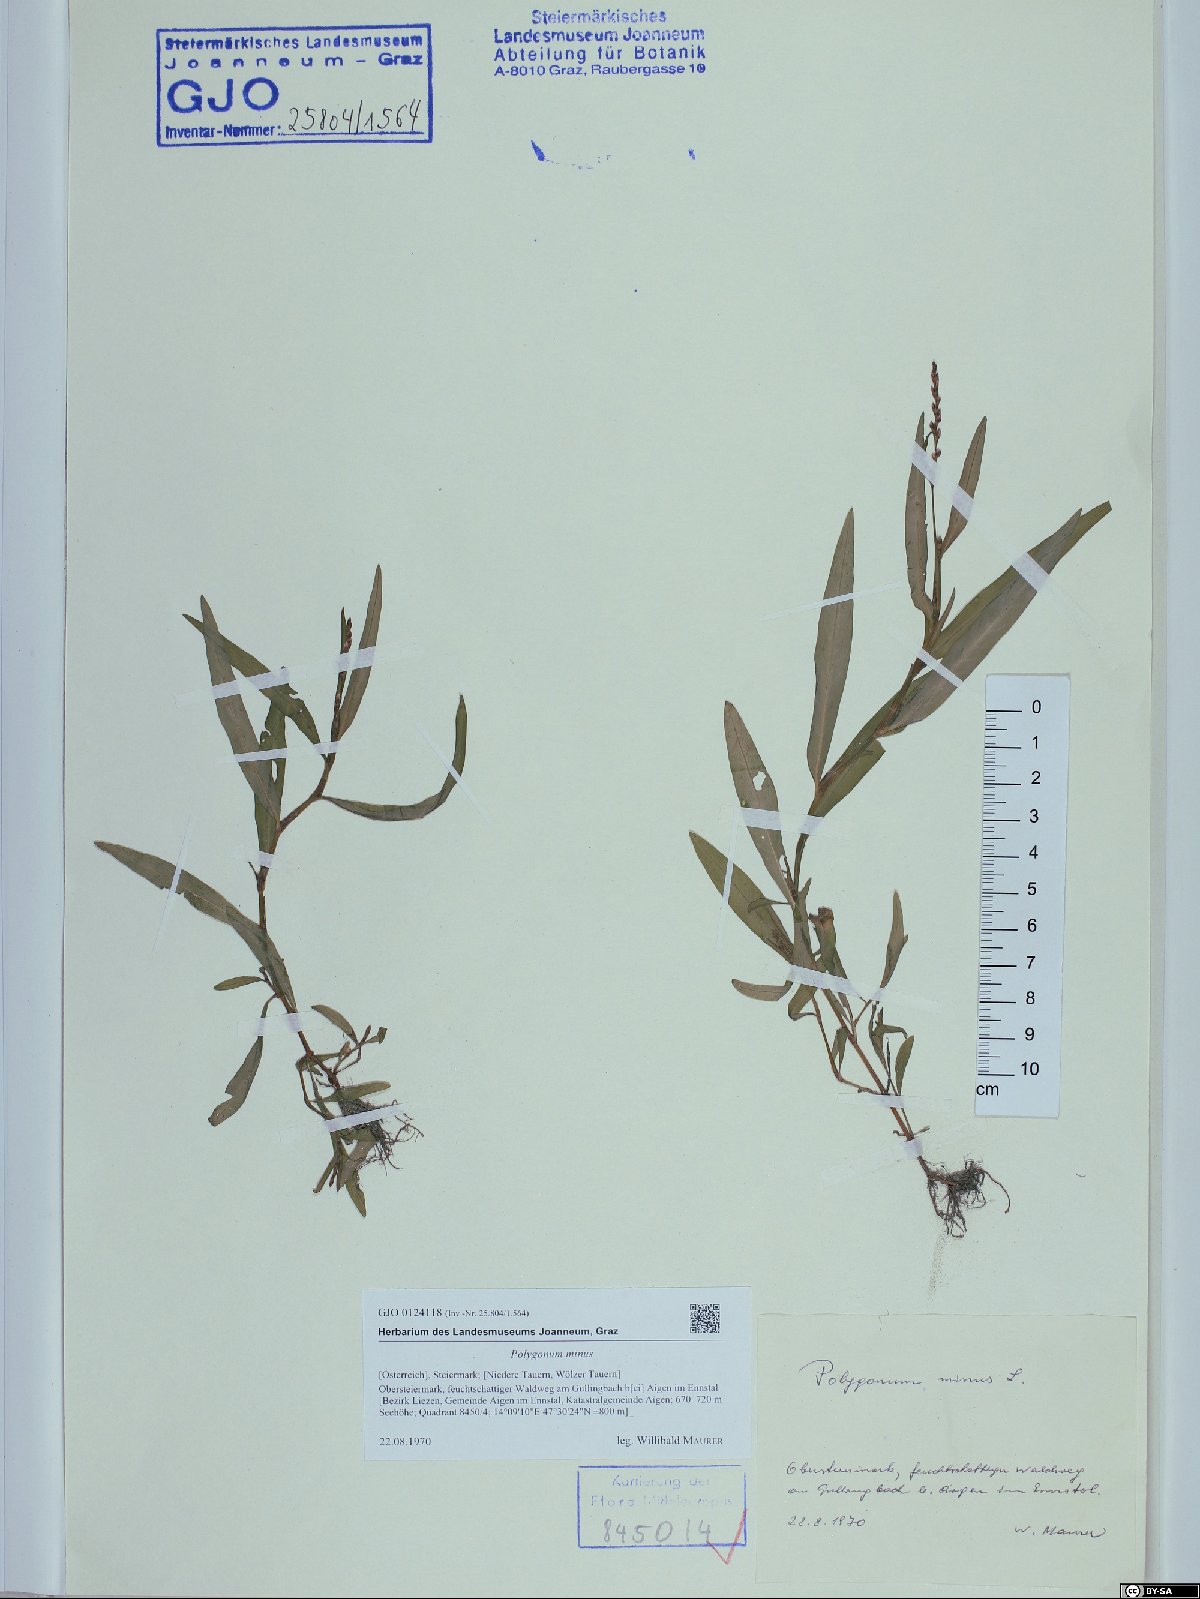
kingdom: Plantae
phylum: Tracheophyta
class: Magnoliopsida
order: Caryophyllales
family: Polygonaceae
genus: Persicaria
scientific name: Persicaria minor
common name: Small water-pepper
